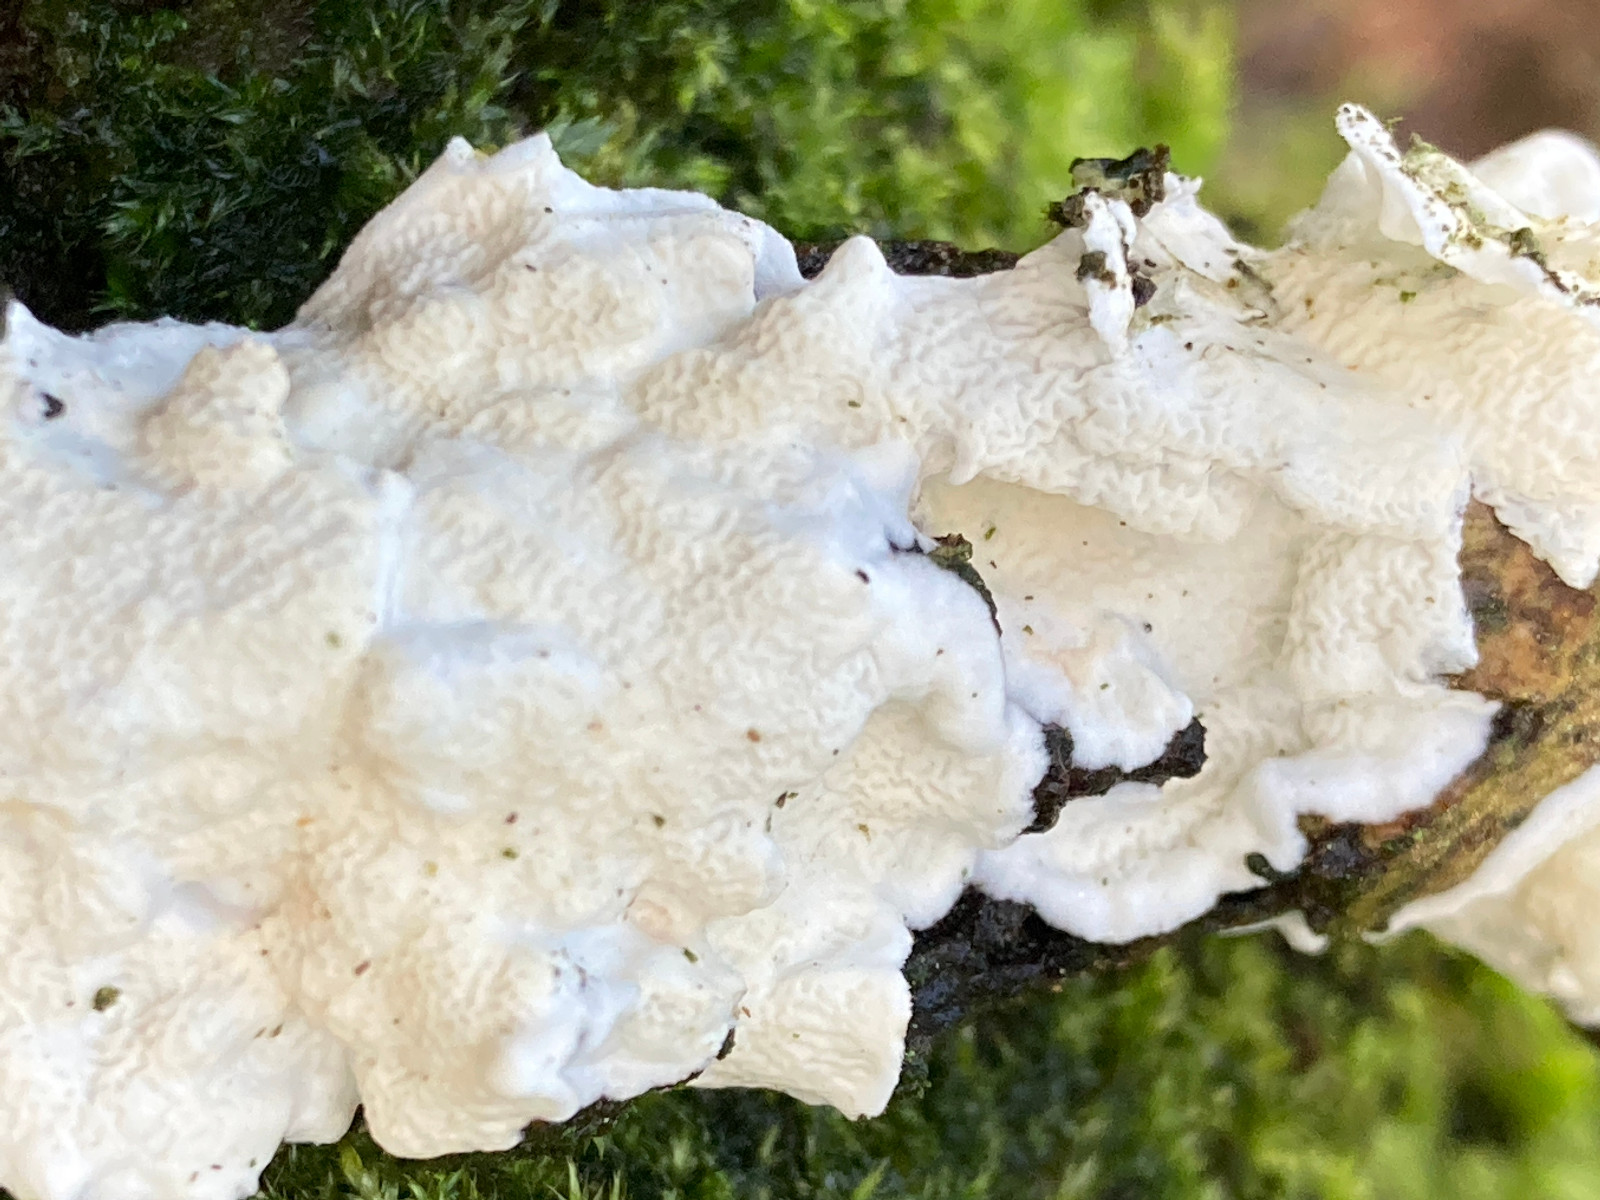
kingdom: Fungi
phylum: Basidiomycota
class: Agaricomycetes
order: Polyporales
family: Irpicaceae
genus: Byssomerulius
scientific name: Byssomerulius corium
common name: læder-åresvamp
